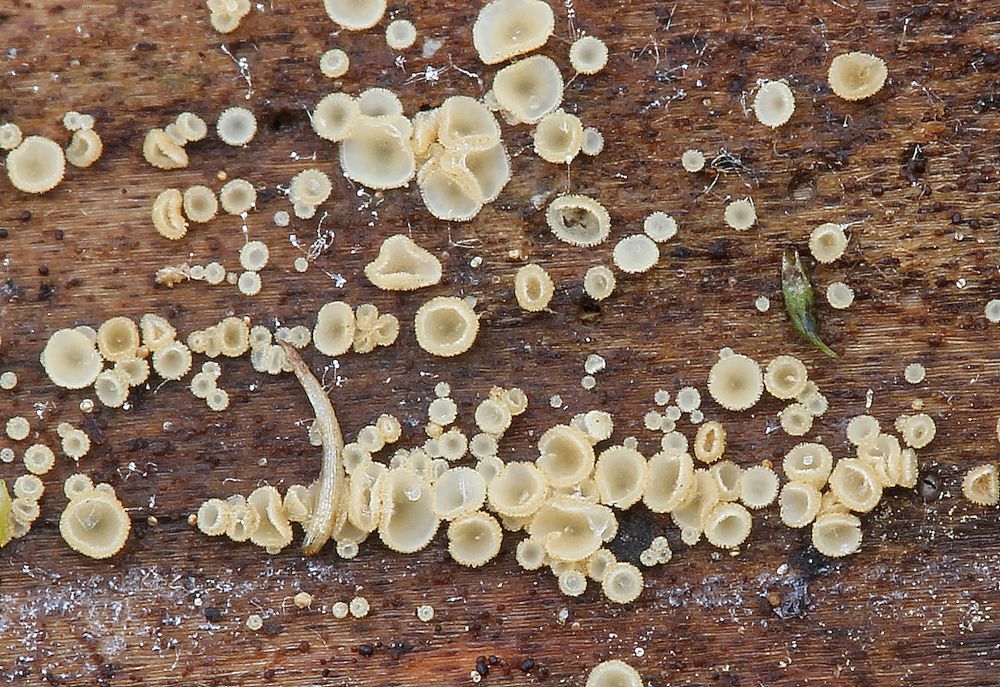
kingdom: Fungi
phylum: Ascomycota
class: Leotiomycetes
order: Helotiales
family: Hyaloscyphaceae
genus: Hyaloscypha
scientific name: Hyaloscypha
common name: klarskive
